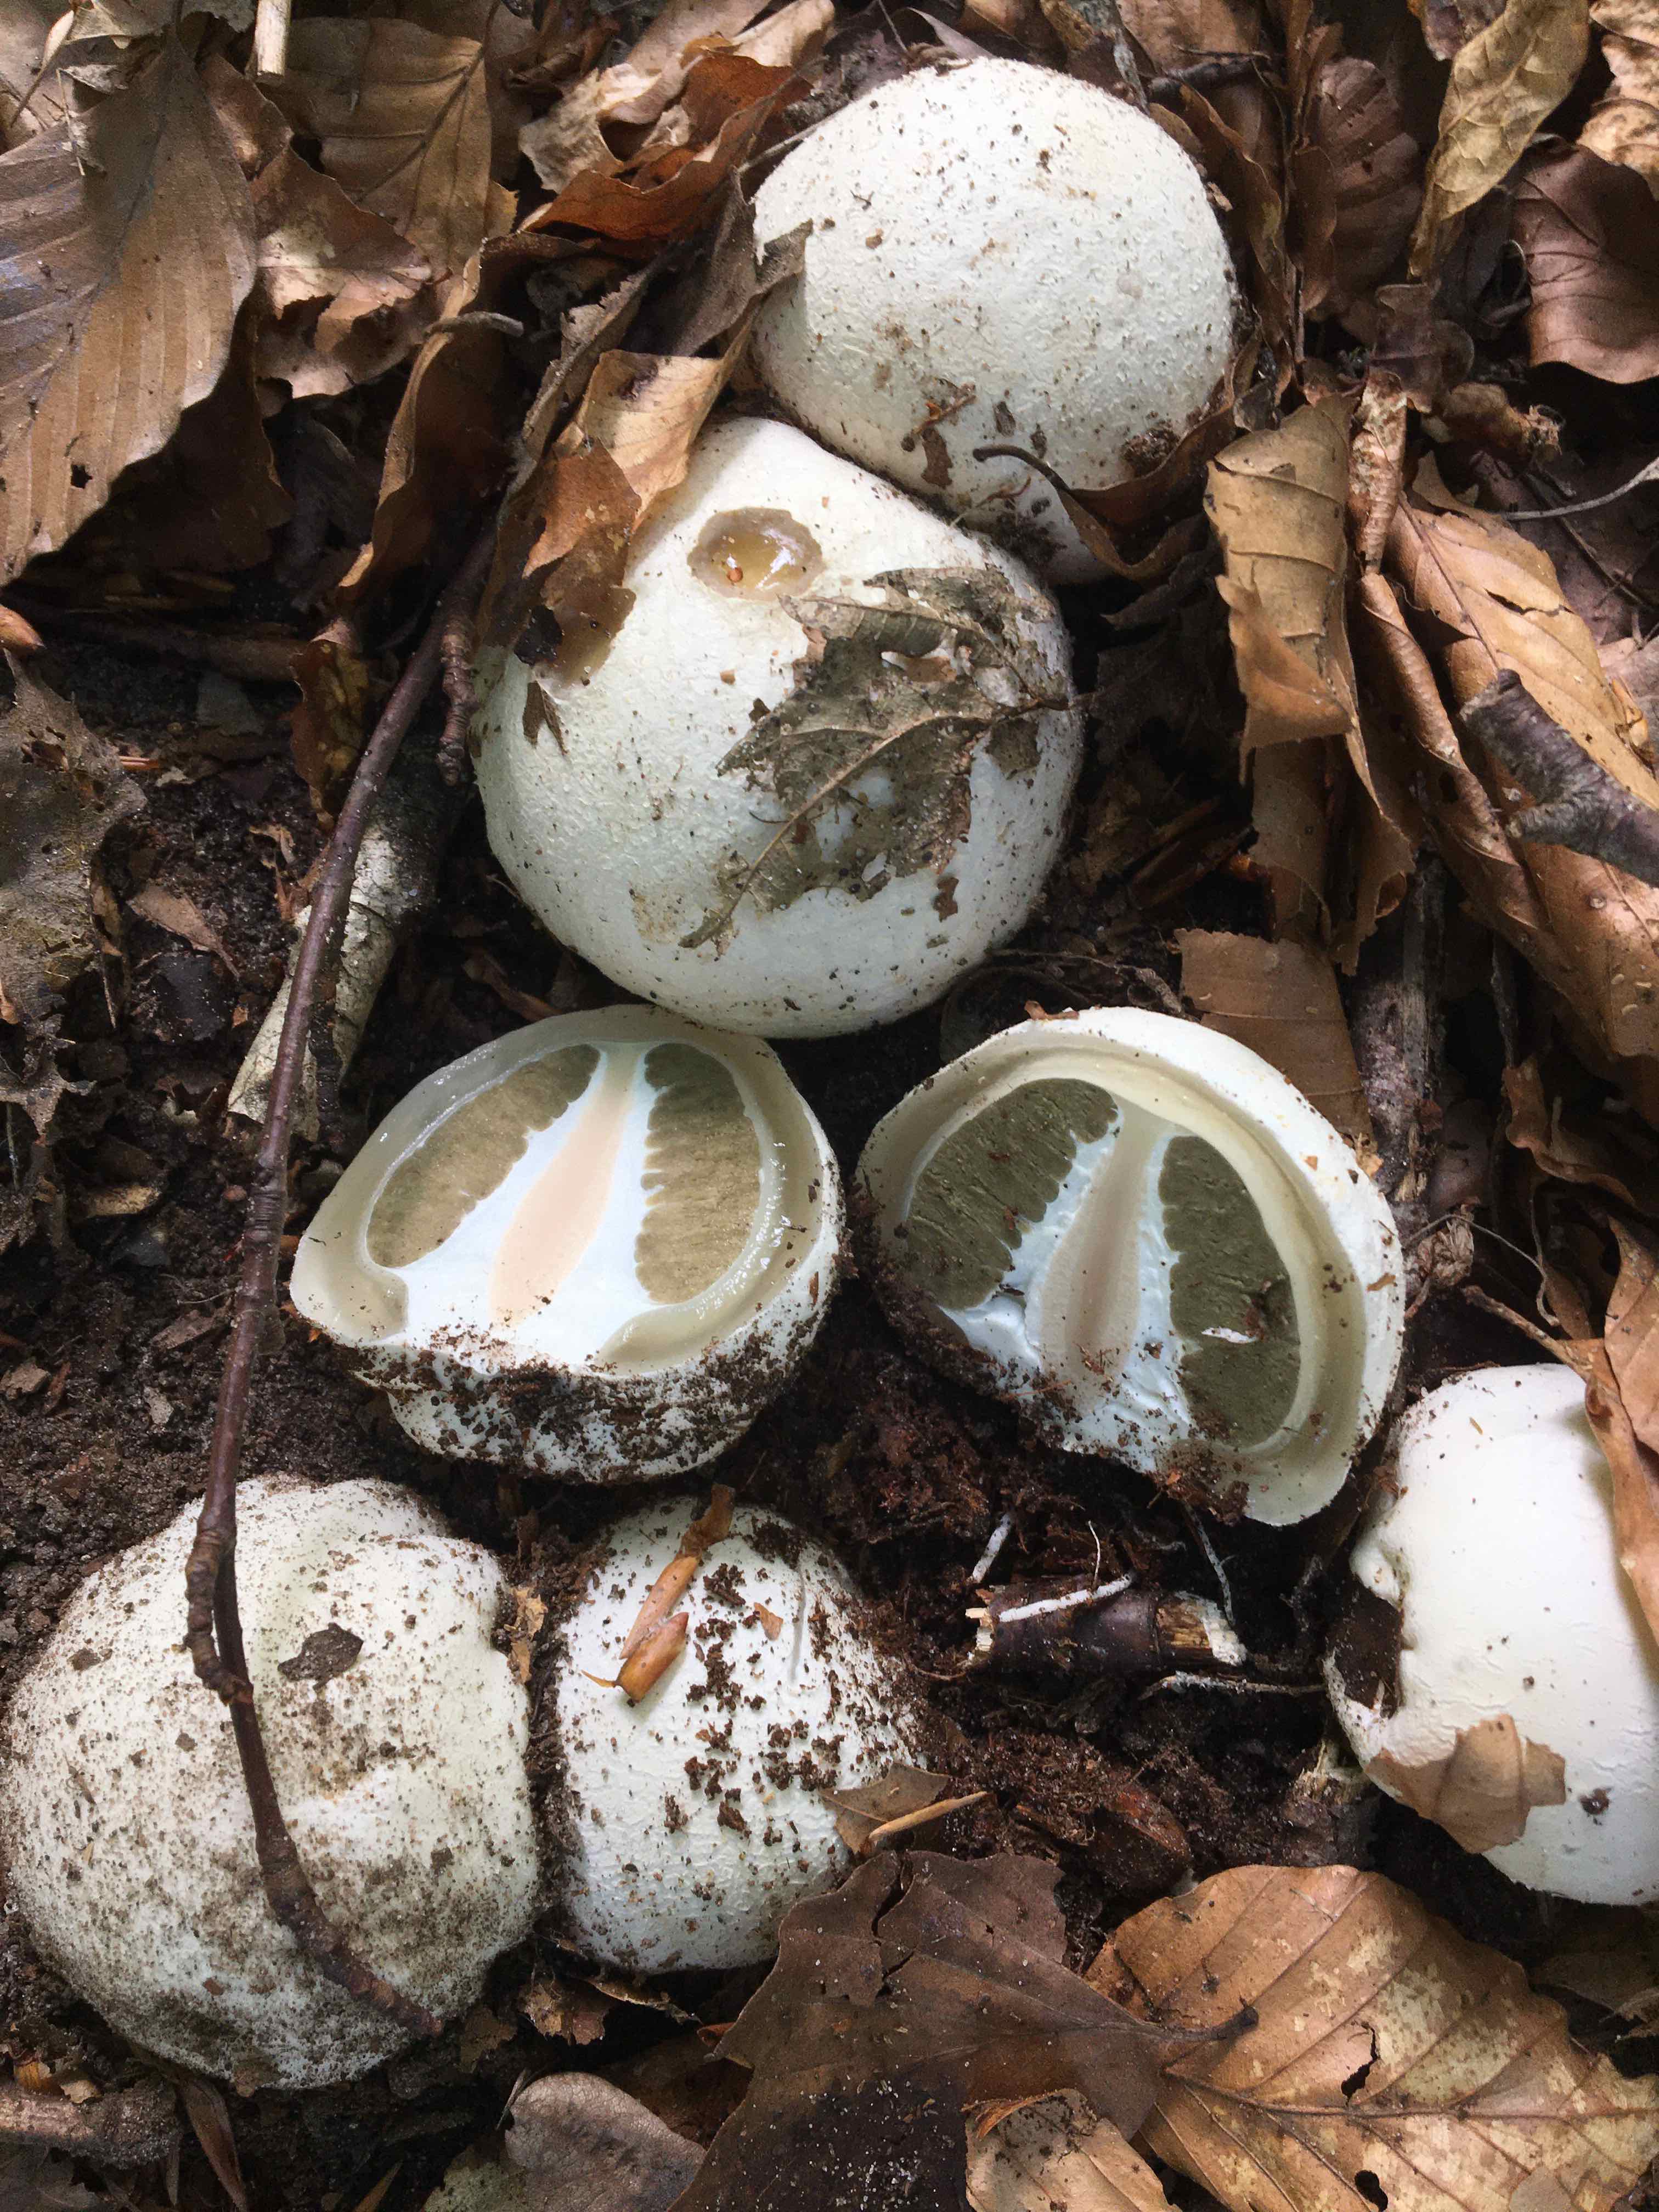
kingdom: Fungi
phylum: Basidiomycota
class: Agaricomycetes
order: Phallales
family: Phallaceae
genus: Phallus
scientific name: Phallus impudicus
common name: almindelig stinksvamp
